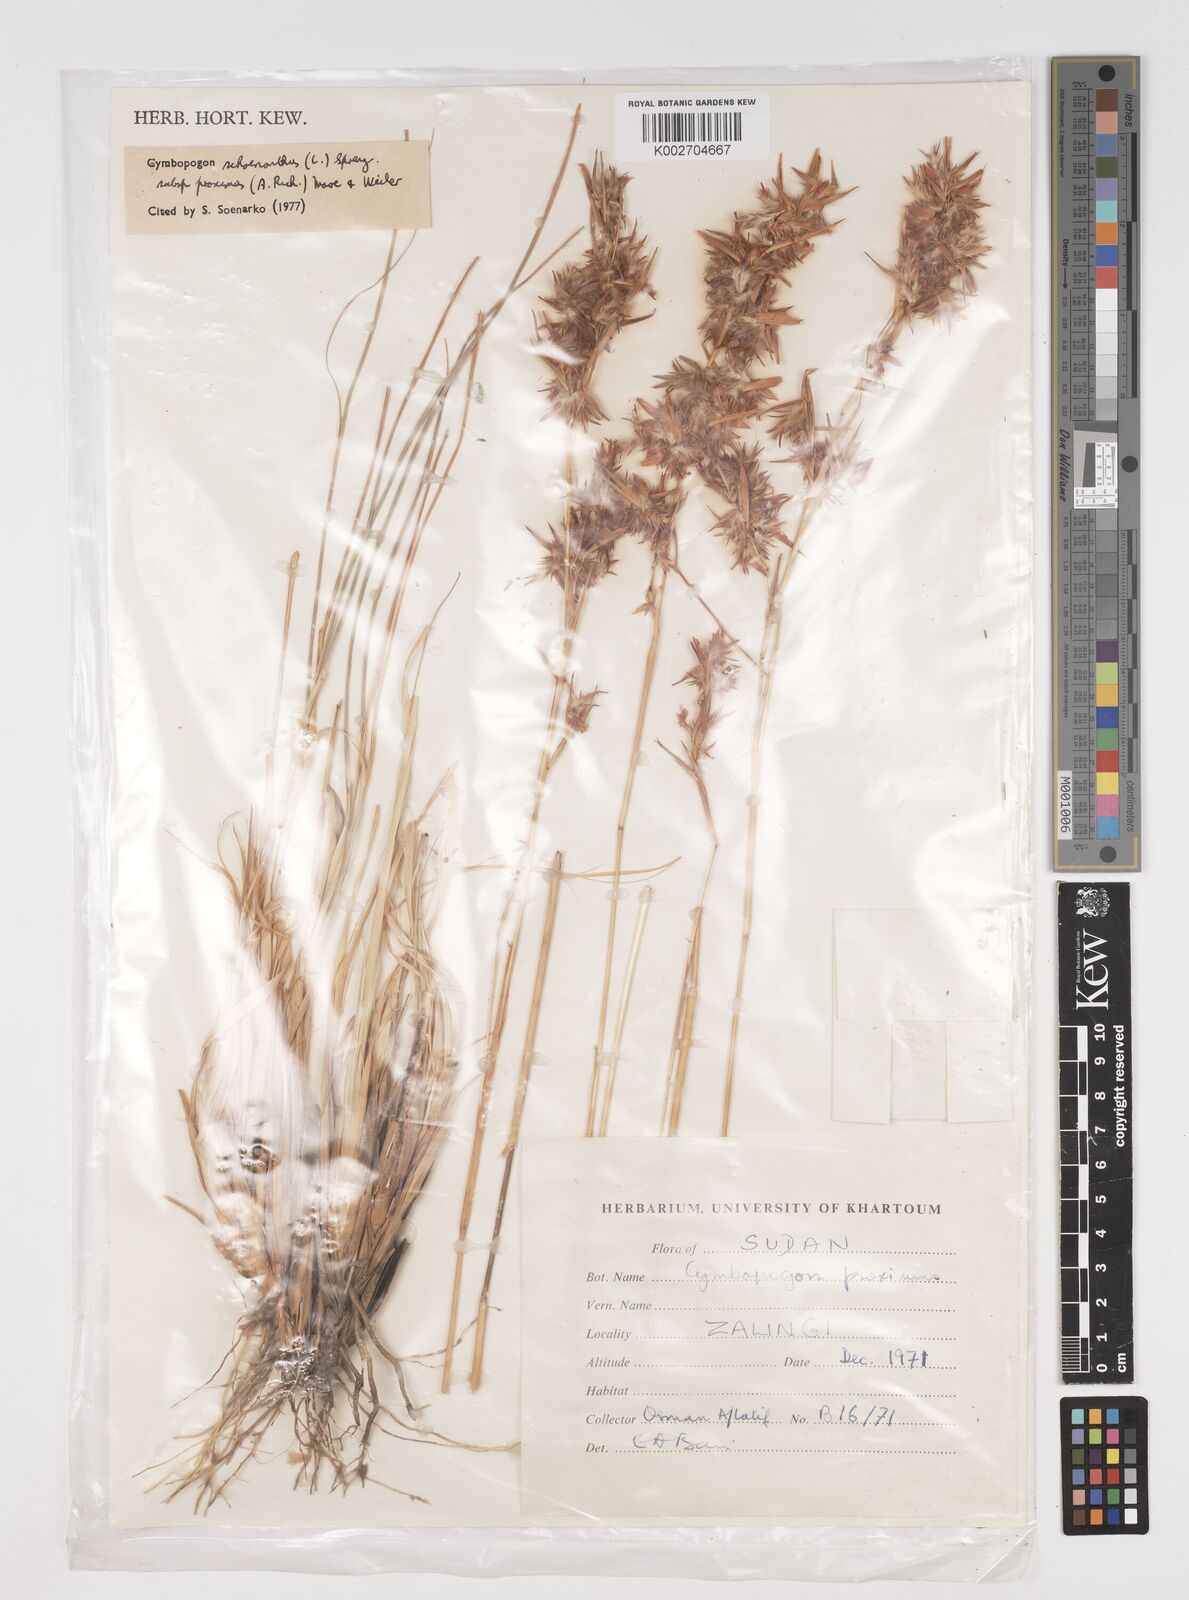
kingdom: Plantae
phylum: Tracheophyta
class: Liliopsida
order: Poales
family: Poaceae
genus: Cymbopogon
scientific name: Cymbopogon schoenanthus
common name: Geranium grass
